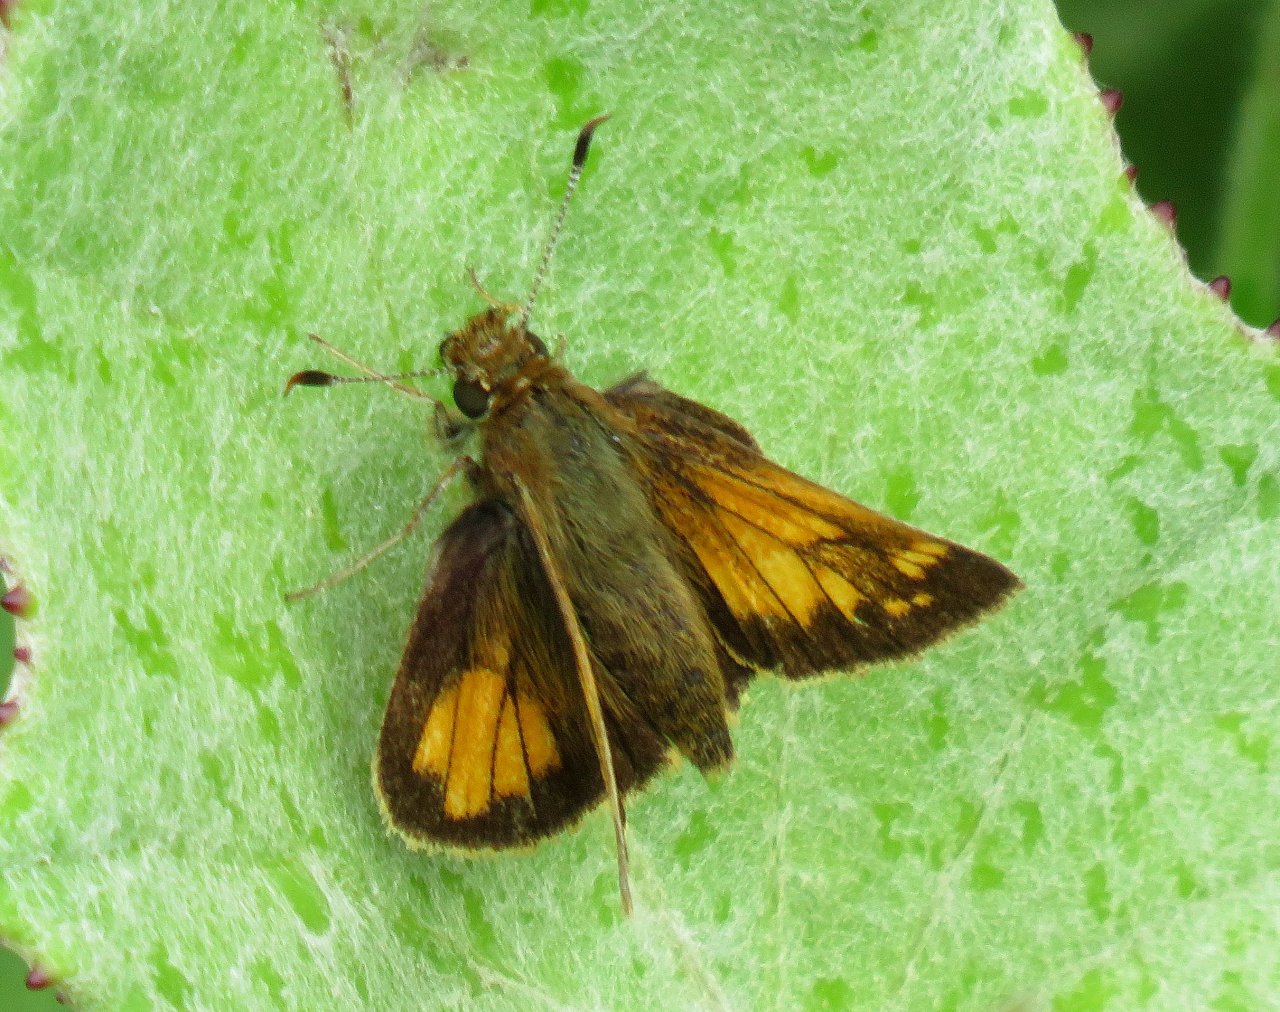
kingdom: Animalia
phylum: Arthropoda
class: Insecta
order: Lepidoptera
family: Hesperiidae
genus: Lon
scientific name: Lon hobomok
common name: Hobomok Skipper
